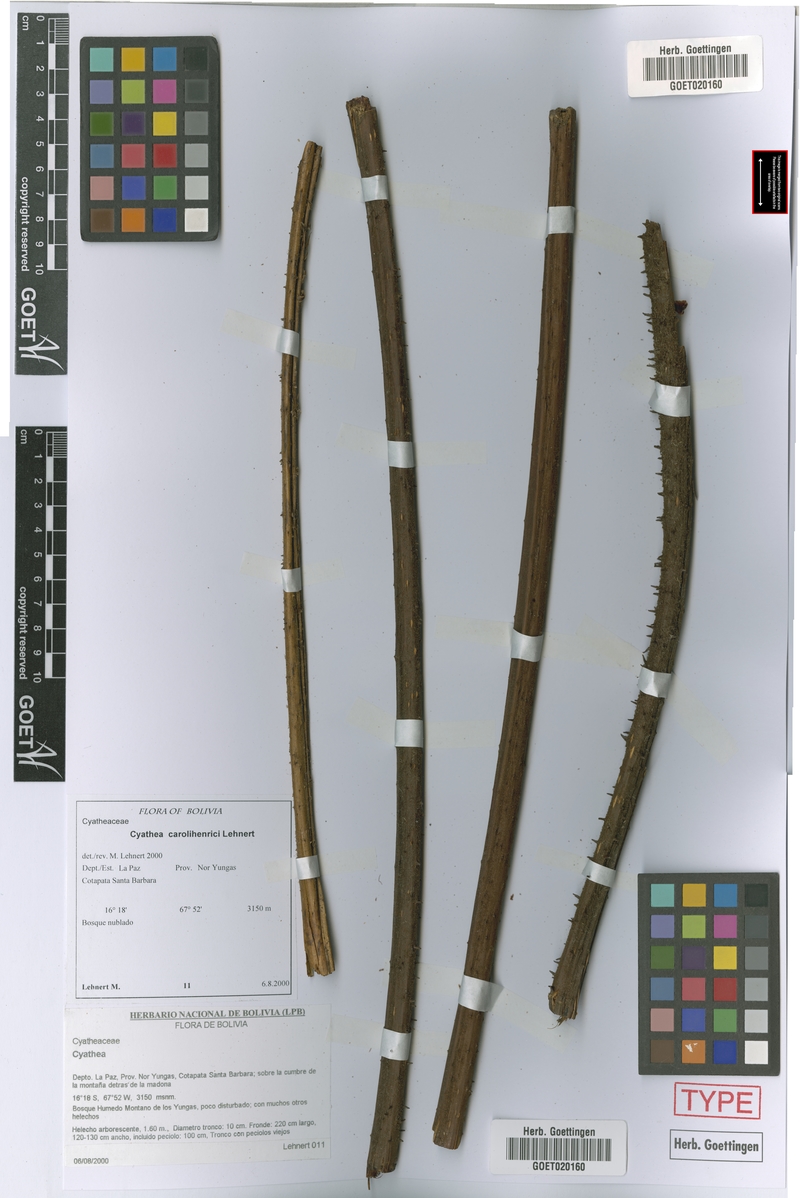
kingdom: Plantae
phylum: Tracheophyta
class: Polypodiopsida
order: Cyatheales
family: Cyatheaceae
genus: Cyathea
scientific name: Cyathea carolihenrici
